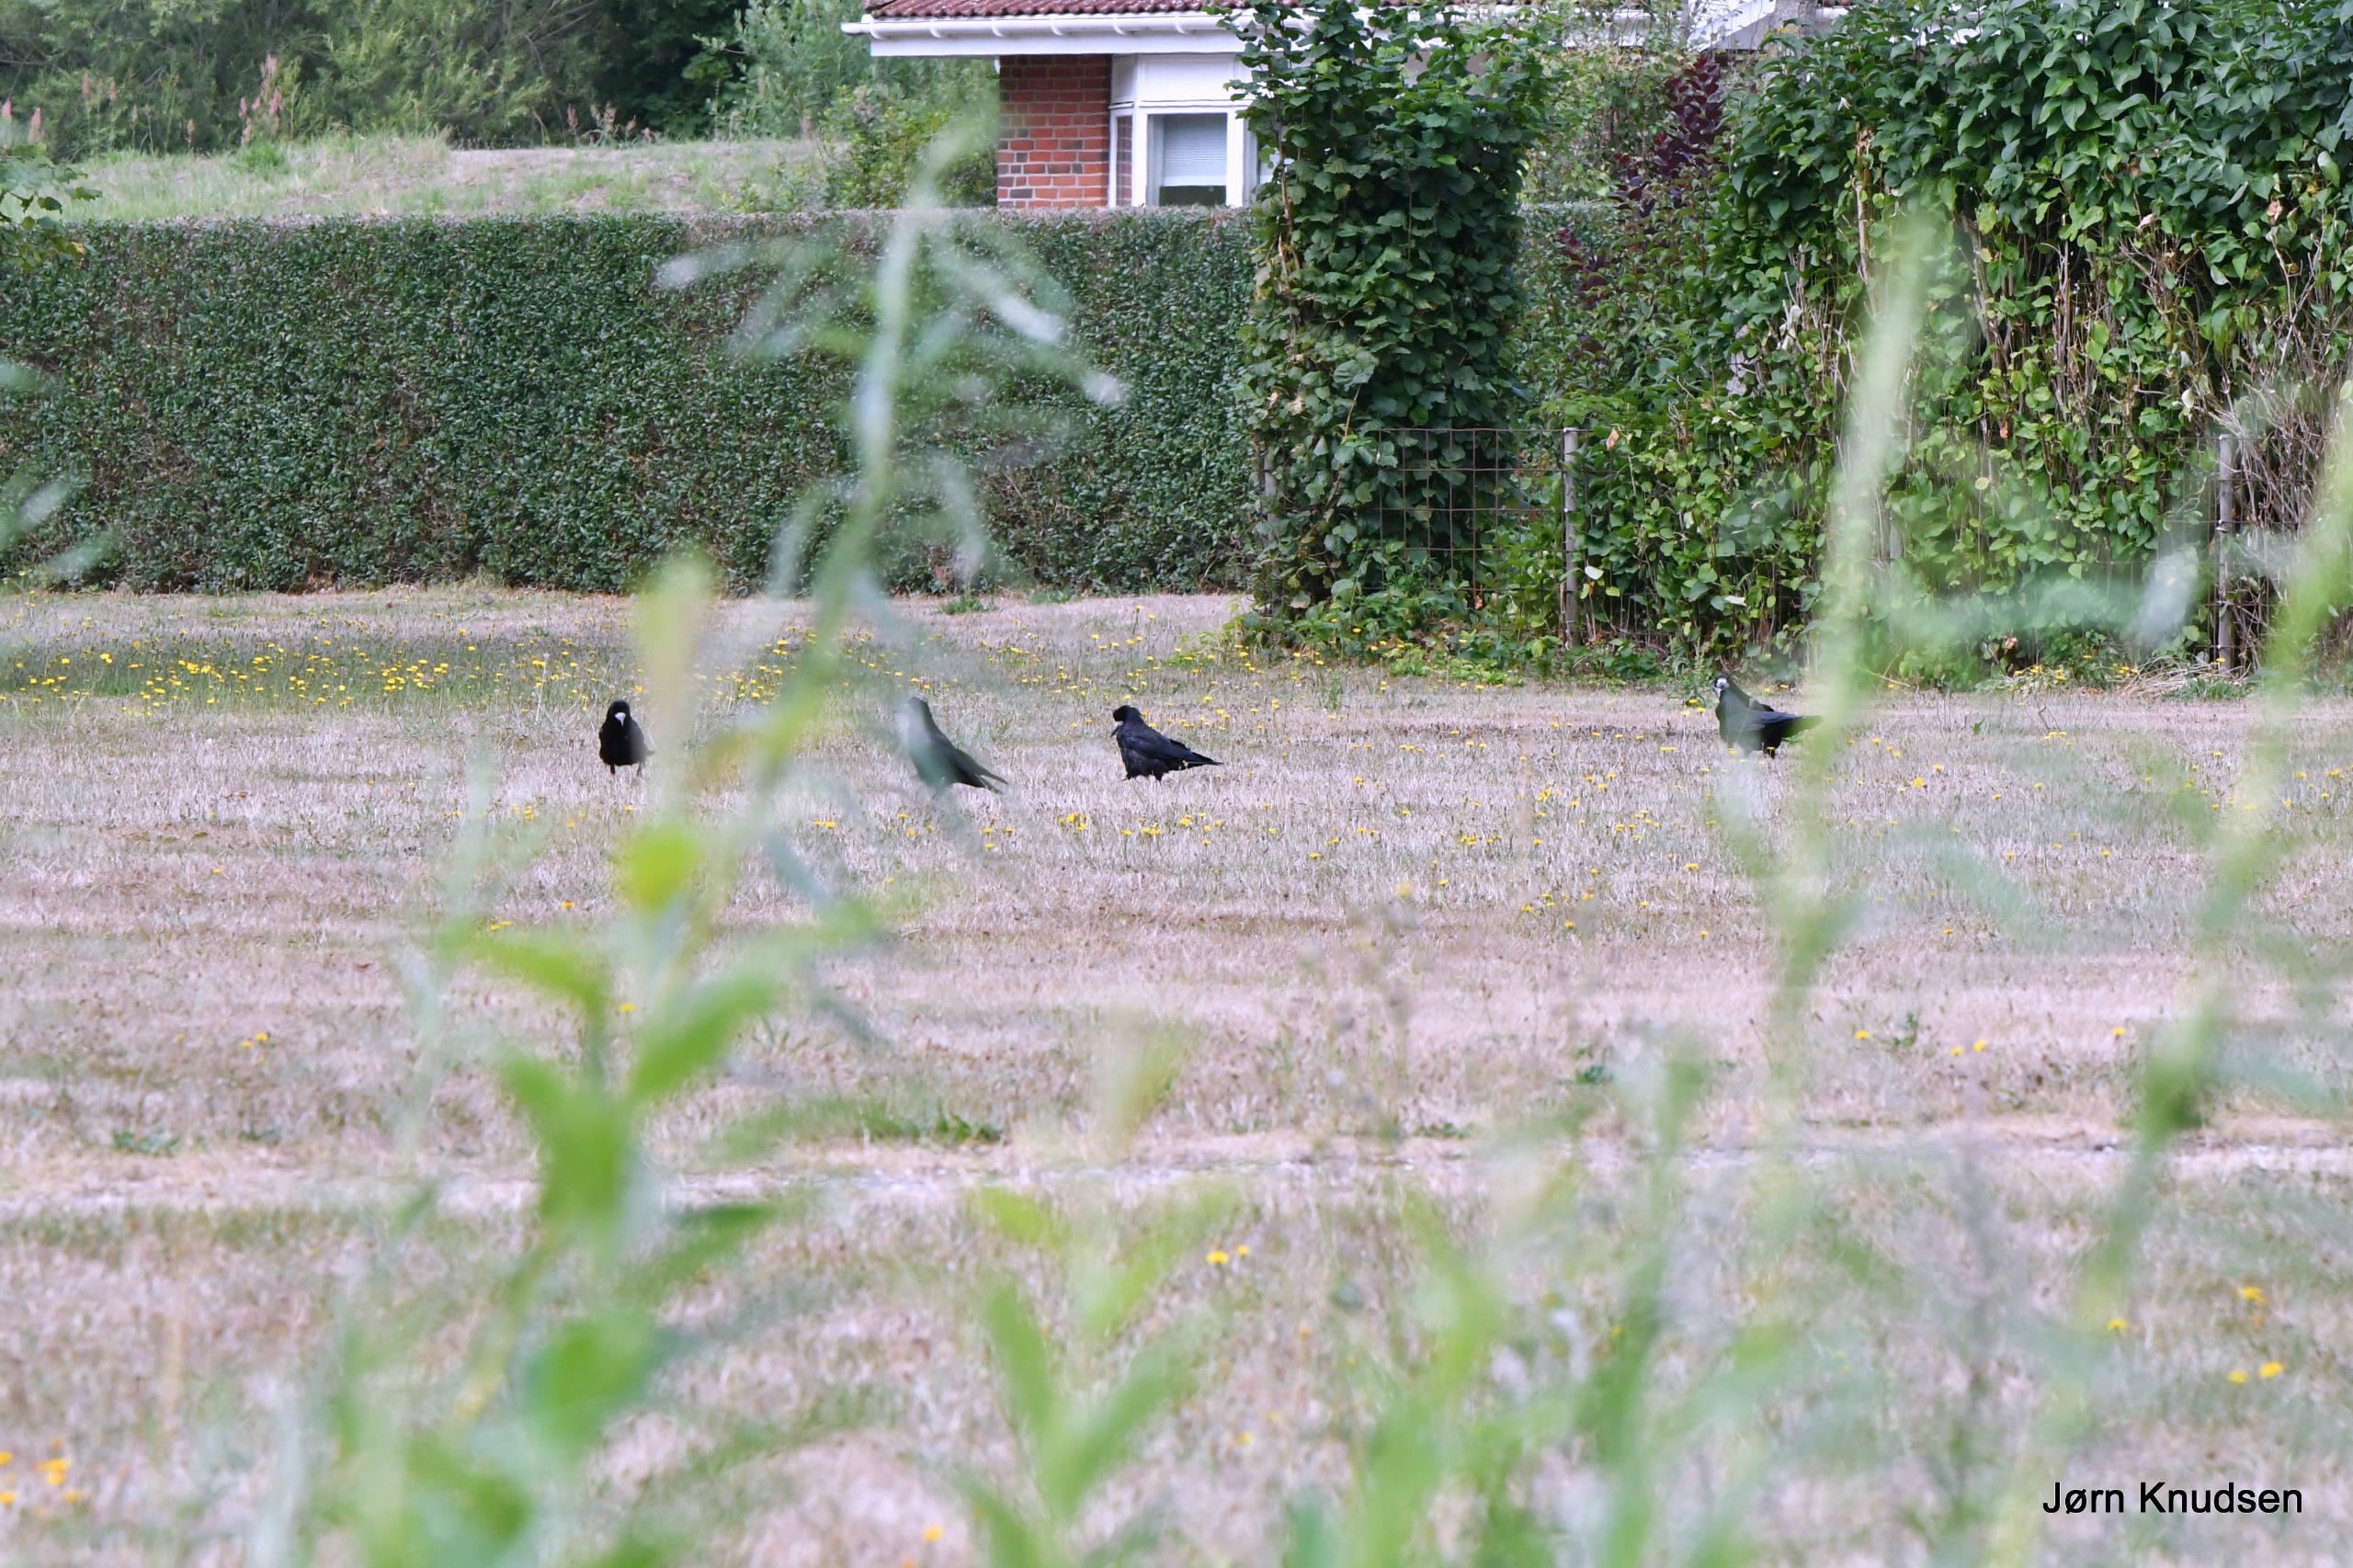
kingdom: Animalia
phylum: Chordata
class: Aves
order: Passeriformes
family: Corvidae
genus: Corvus
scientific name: Corvus frugilegus
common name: Råge
